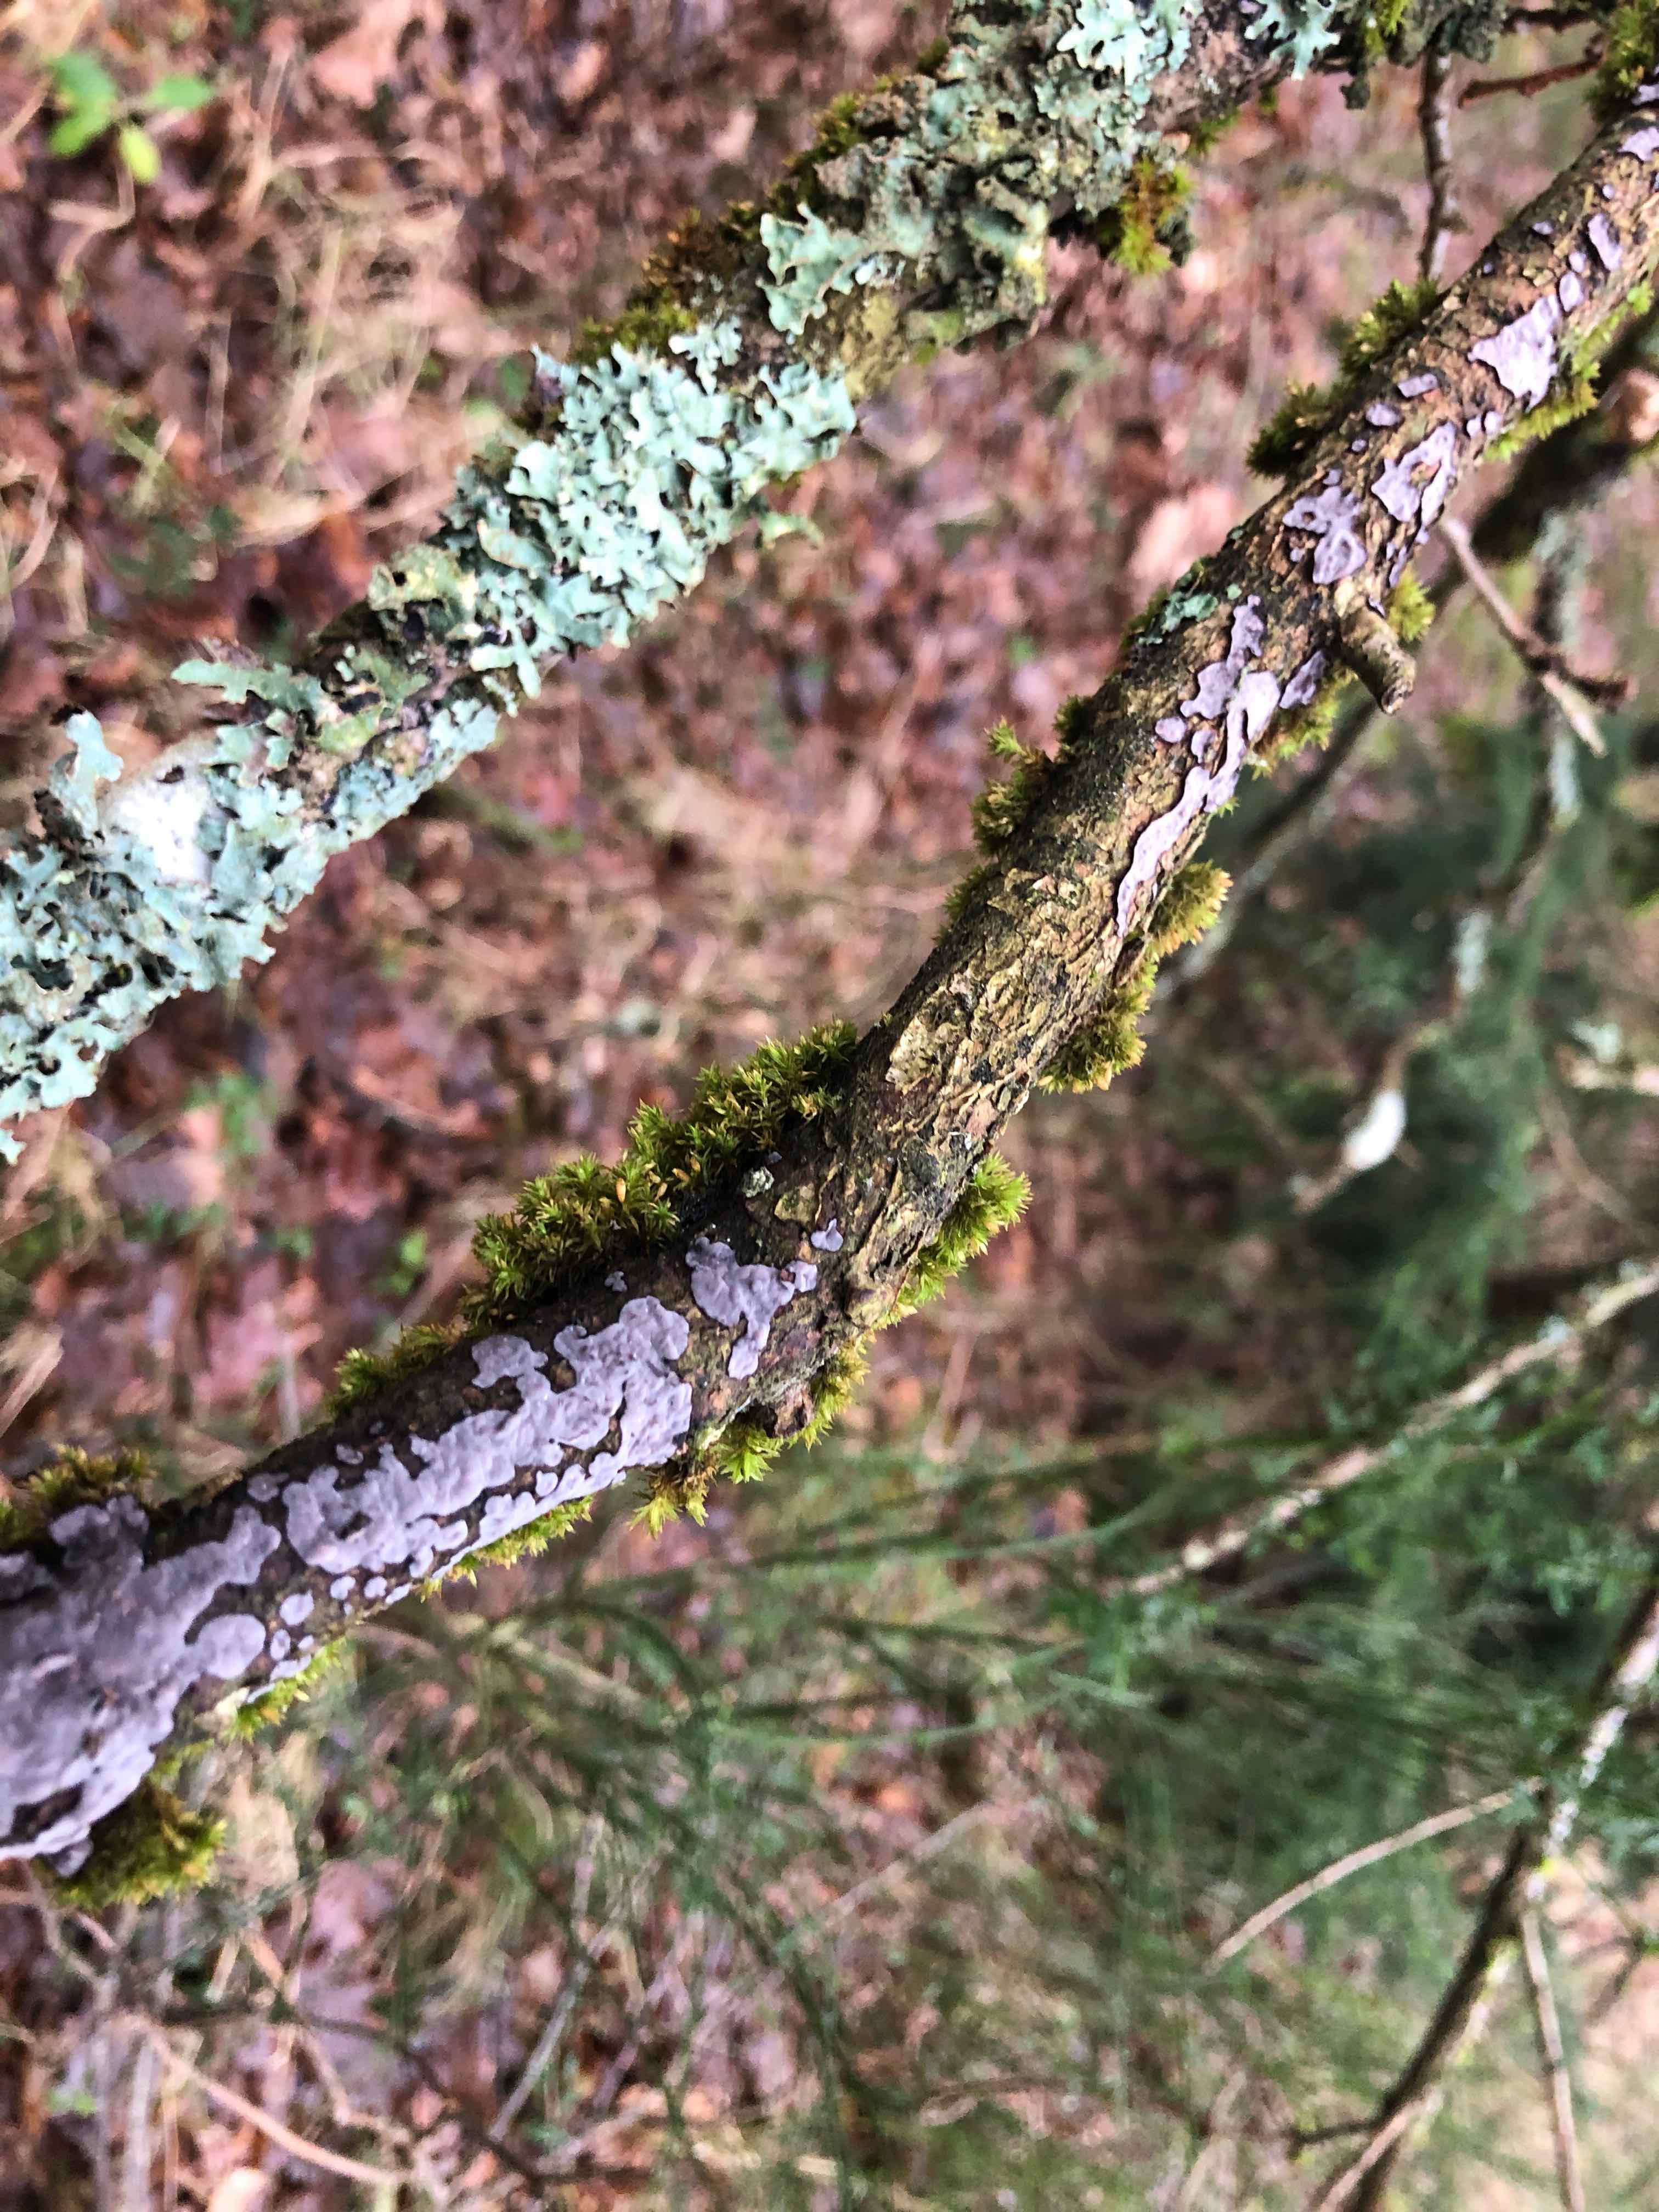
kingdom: Fungi
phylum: Basidiomycota
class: Agaricomycetes
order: Russulales
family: Peniophoraceae
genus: Peniophora
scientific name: Peniophora quercina
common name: ege-voksskind
